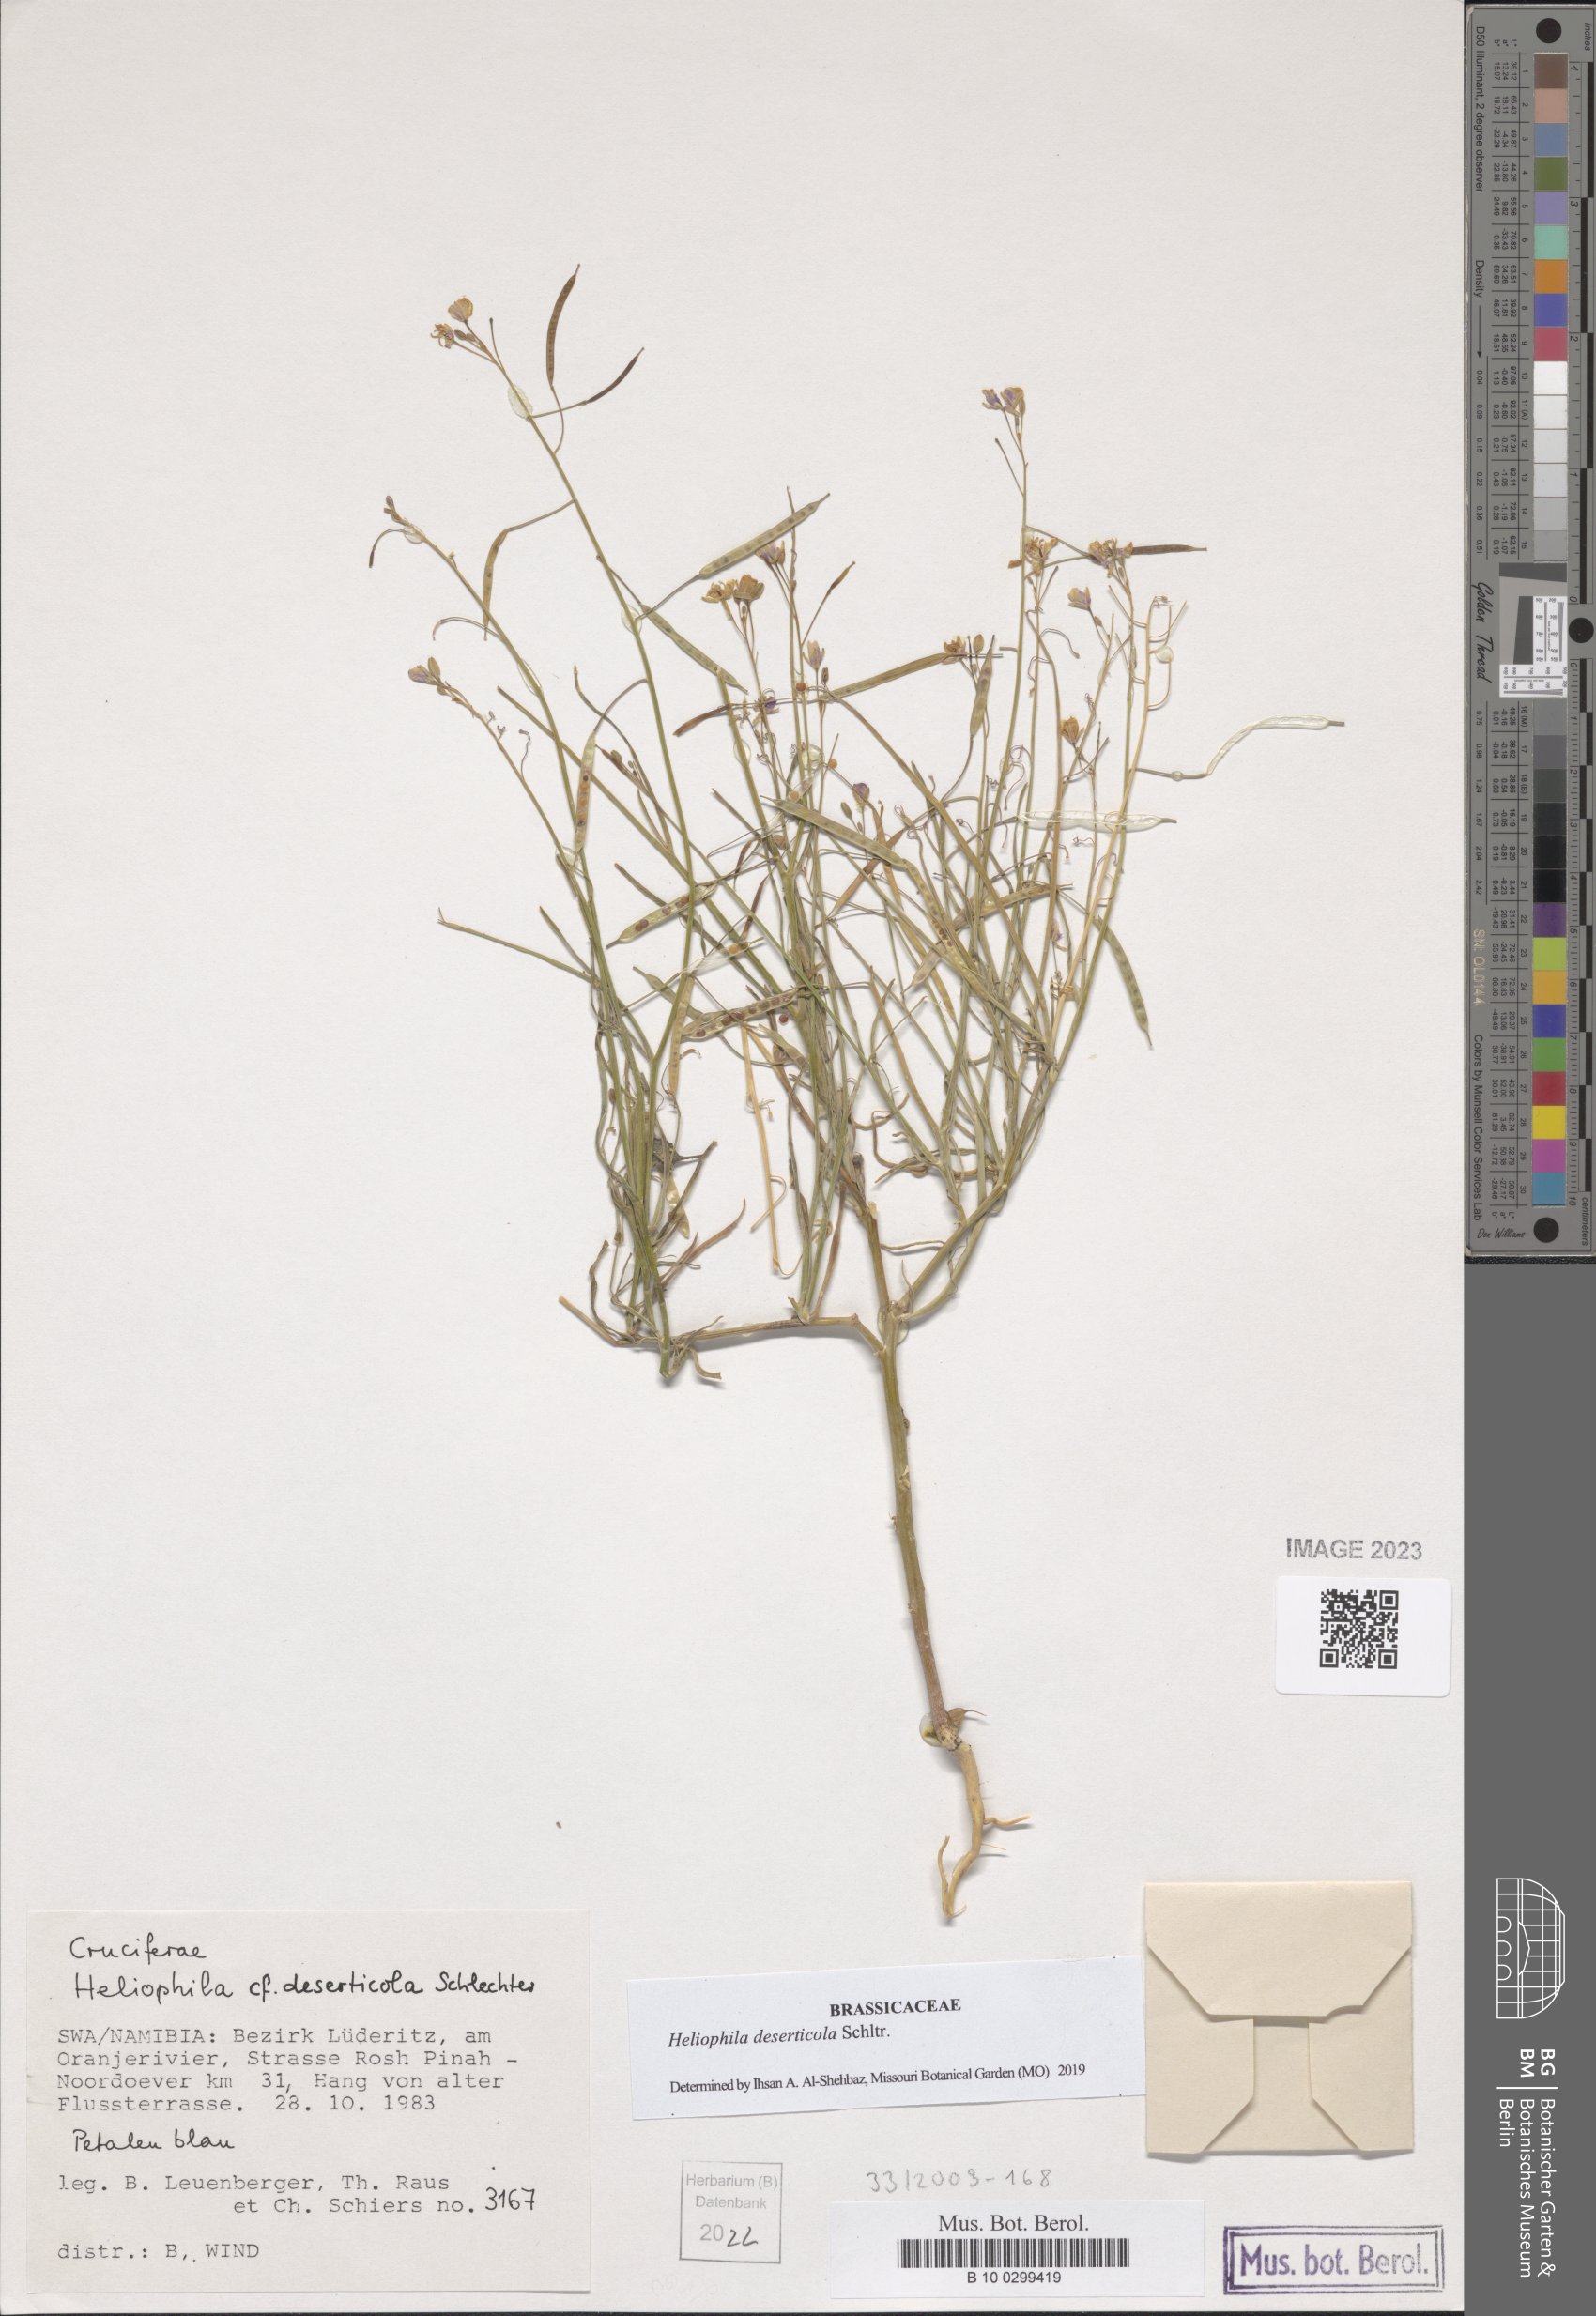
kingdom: Plantae
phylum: Tracheophyta
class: Magnoliopsida
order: Brassicales
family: Brassicaceae
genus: Heliophila
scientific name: Heliophila deserticola
